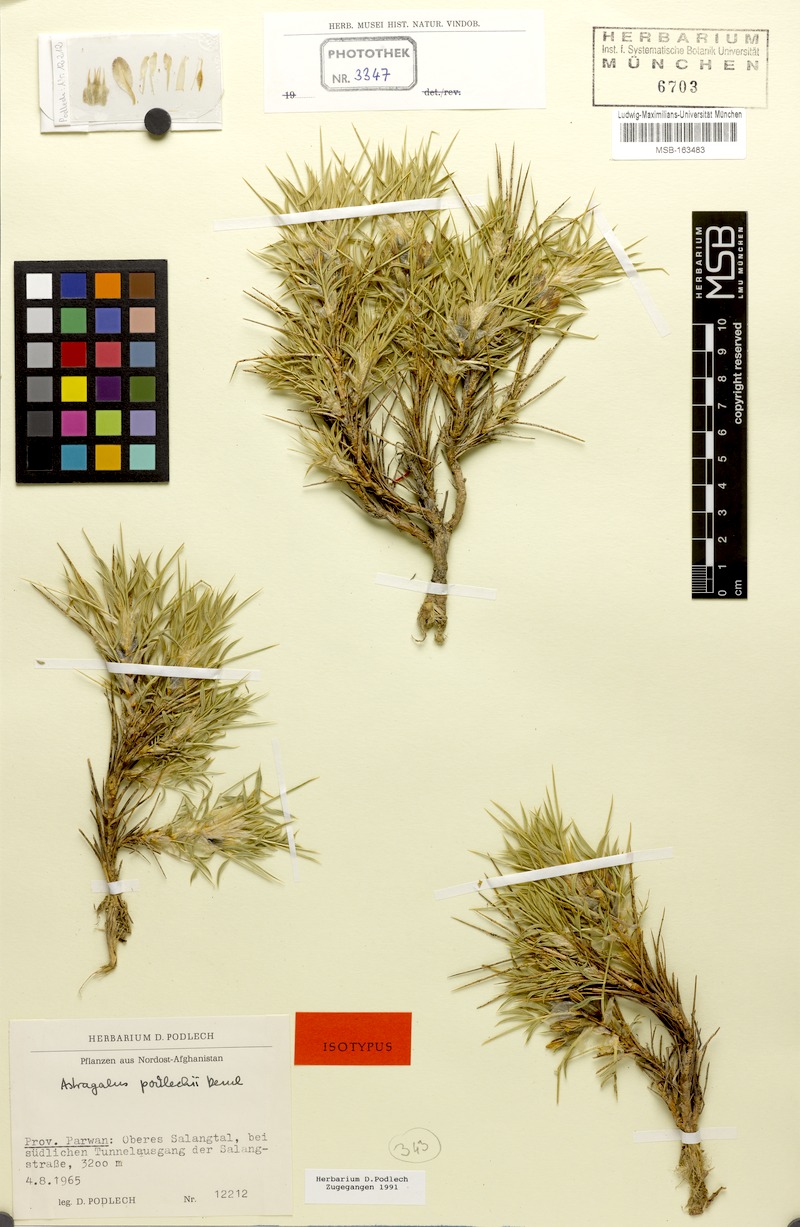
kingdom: Plantae
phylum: Tracheophyta
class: Magnoliopsida
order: Fabales
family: Fabaceae
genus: Astragalus
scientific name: Astragalus podlechii
